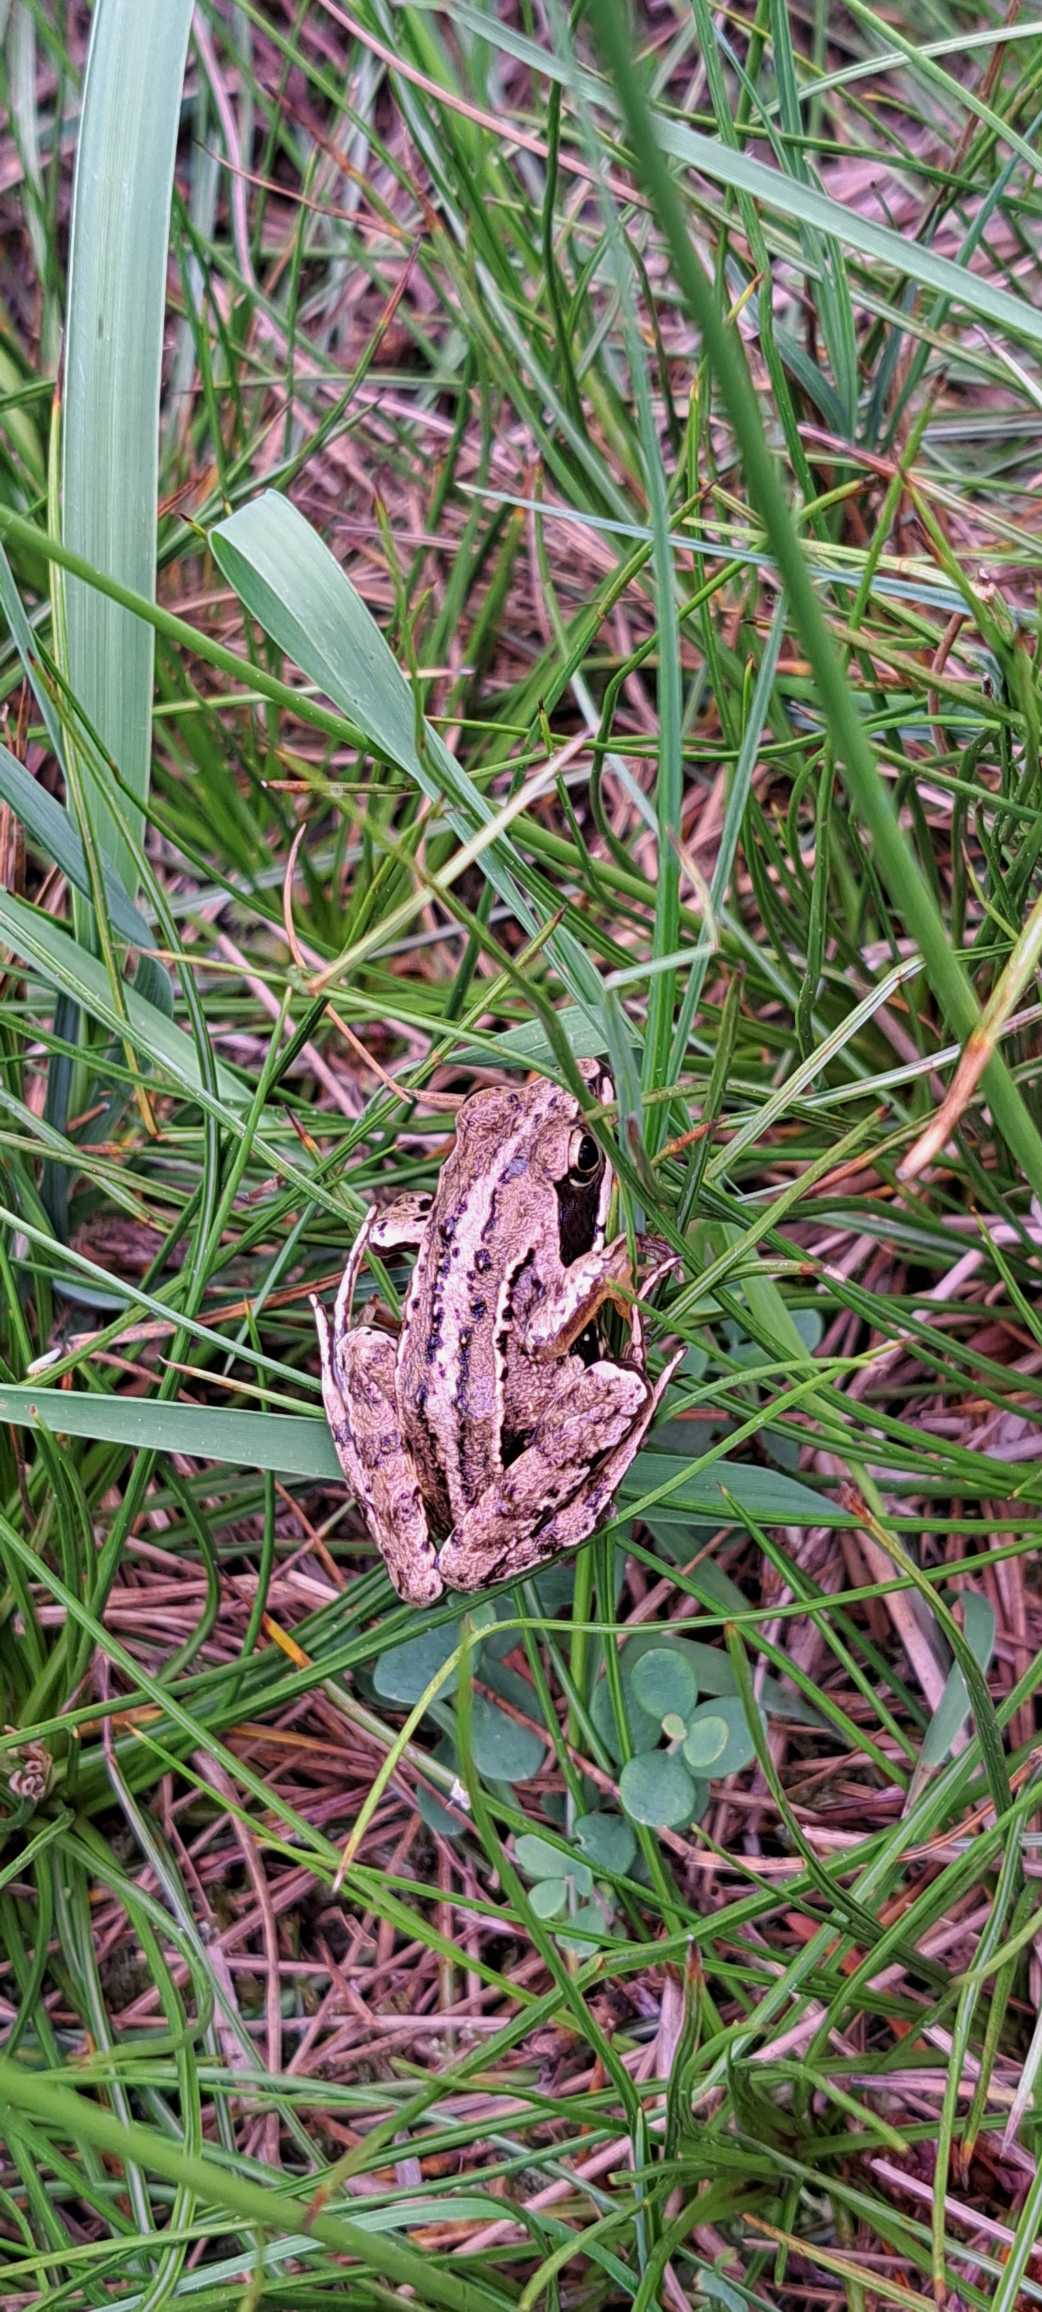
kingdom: Animalia
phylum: Chordata
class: Amphibia
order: Anura
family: Ranidae
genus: Rana
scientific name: Rana arvalis
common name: Spidssnudet frø
